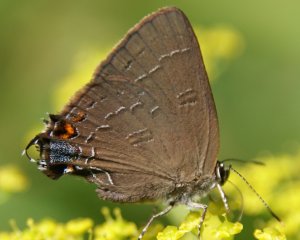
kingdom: Animalia
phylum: Arthropoda
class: Insecta
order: Lepidoptera
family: Lycaenidae
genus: Satyrium
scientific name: Satyrium calanus
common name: Banded Hairstreak
